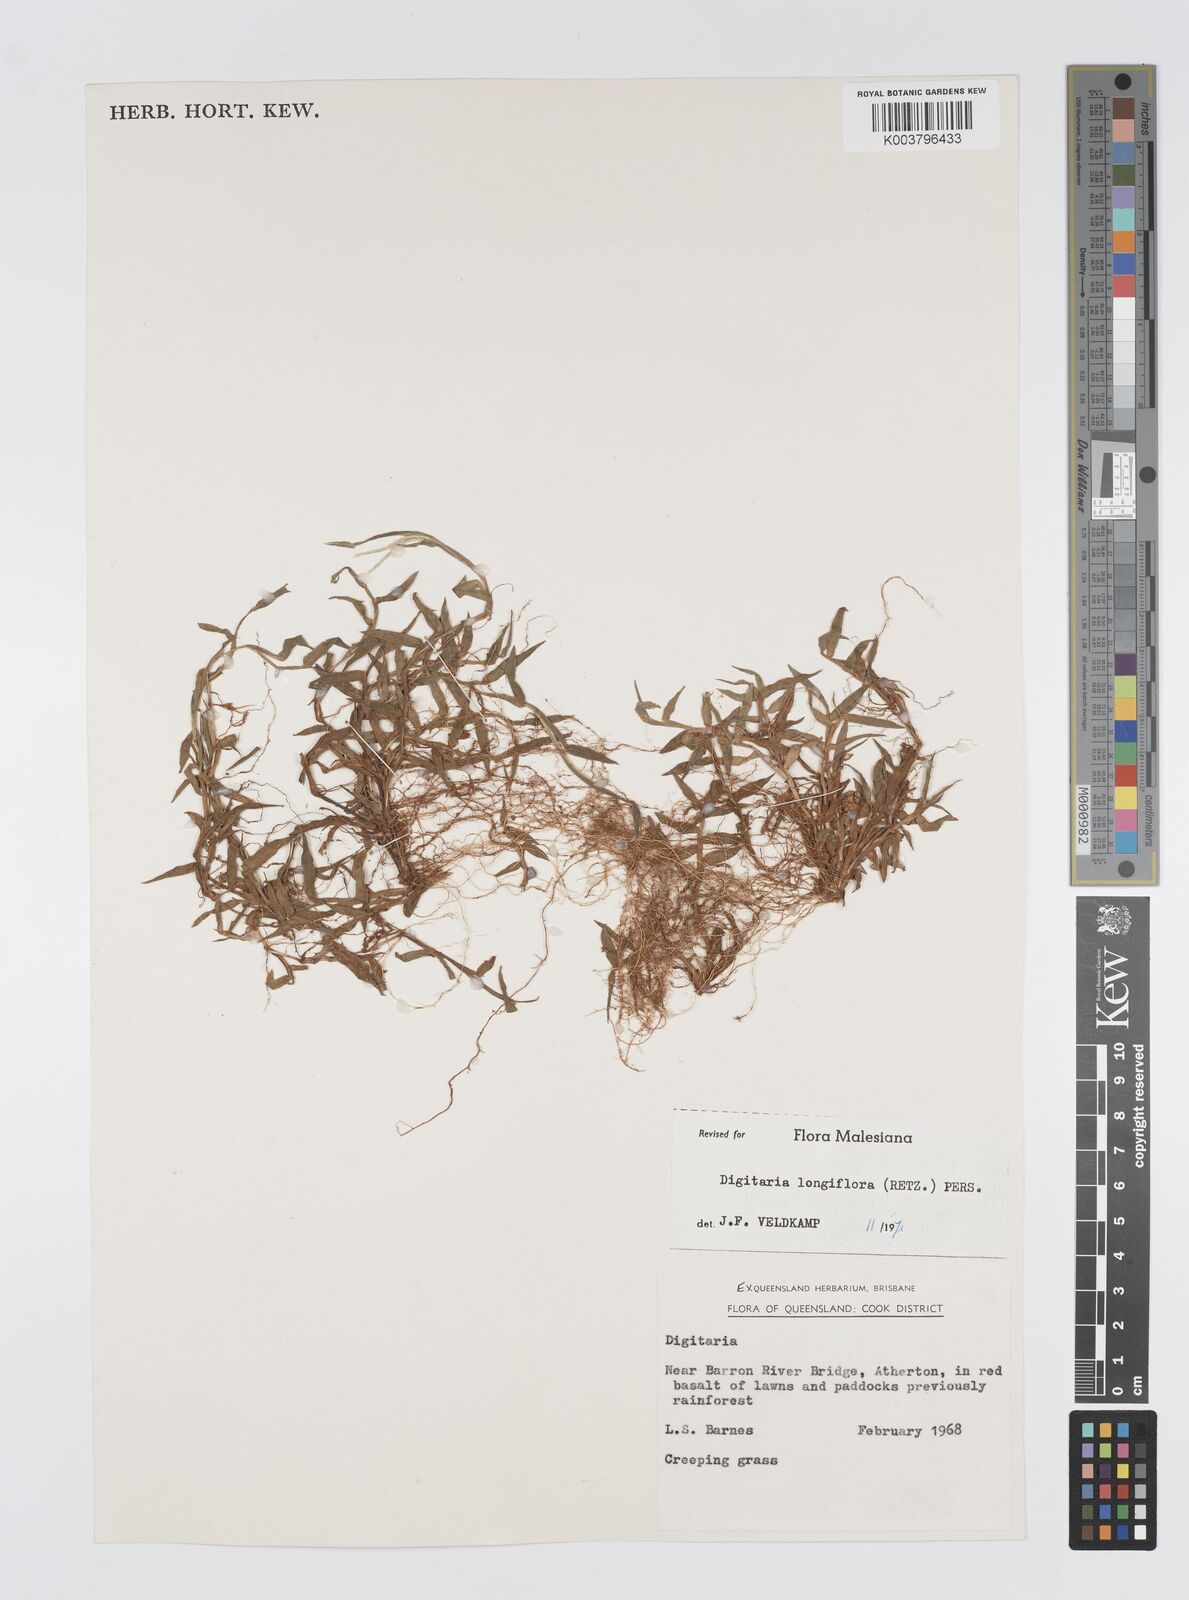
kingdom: Plantae
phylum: Tracheophyta
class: Liliopsida
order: Poales
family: Poaceae
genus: Digitaria
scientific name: Digitaria longiflora
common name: Wire crabgrass
